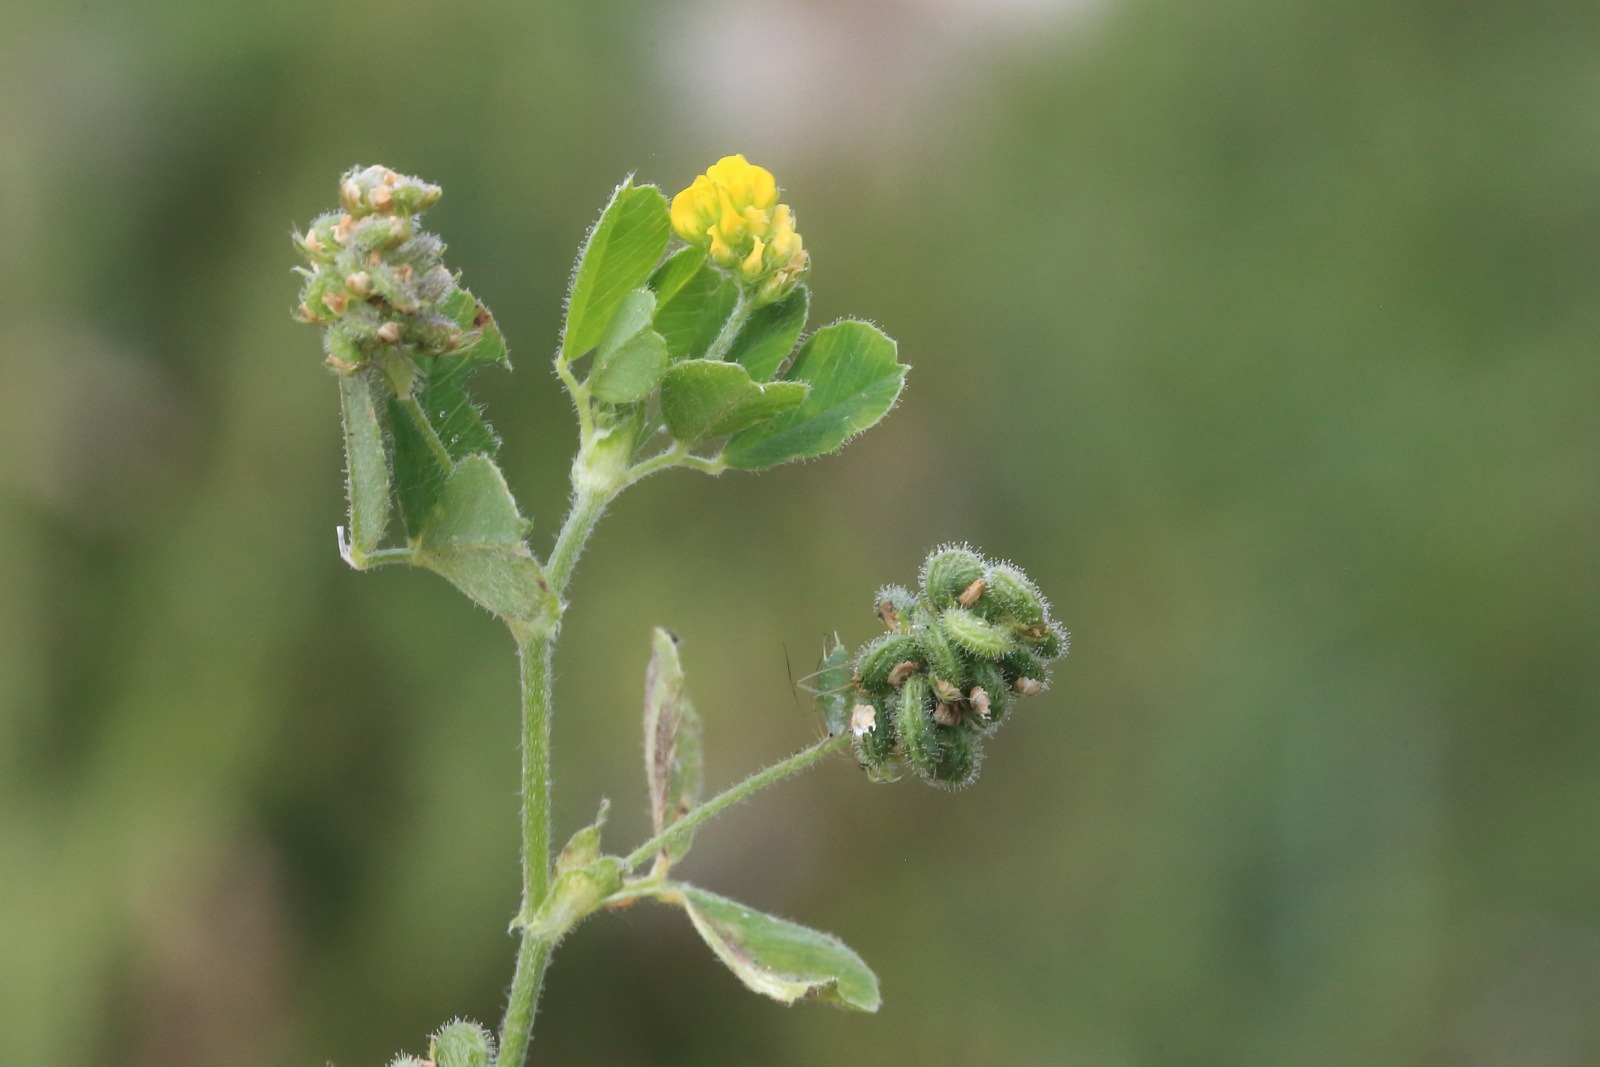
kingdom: Plantae
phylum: Tracheophyta
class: Magnoliopsida
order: Fabales
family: Fabaceae
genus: Medicago
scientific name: Medicago lupulina
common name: Humle-sneglebælg
